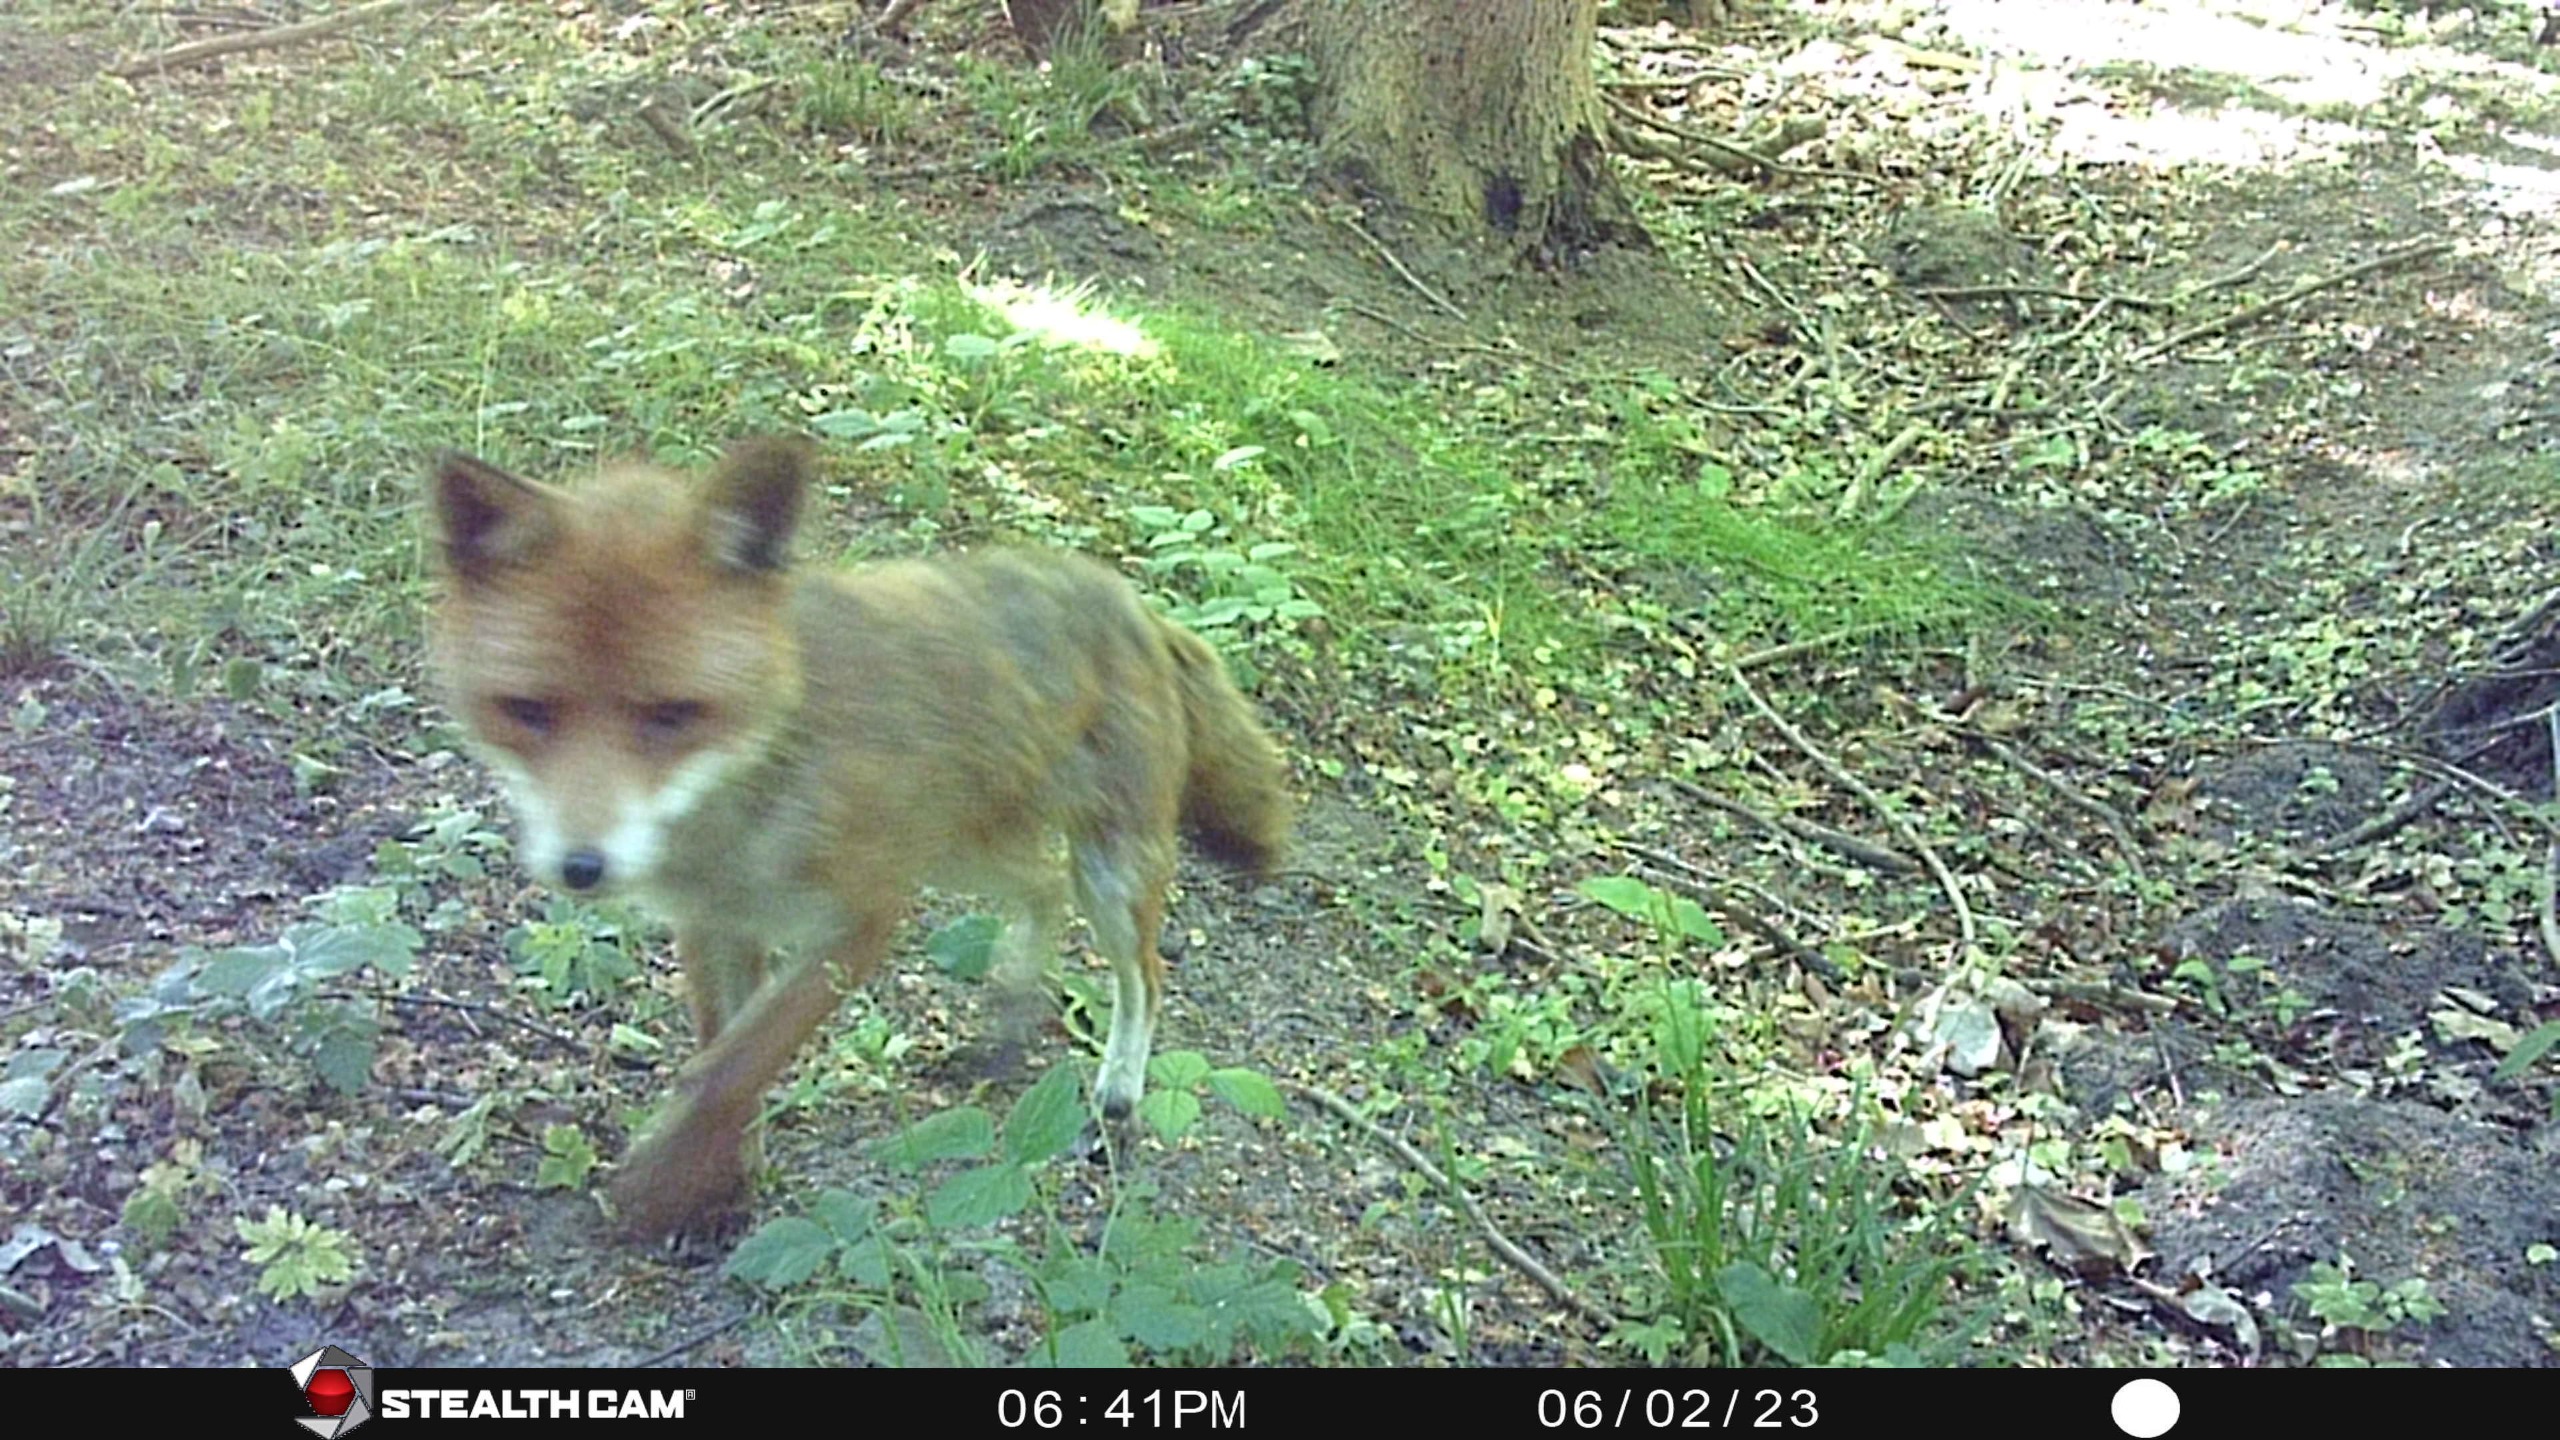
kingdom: Animalia
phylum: Chordata
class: Mammalia
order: Carnivora
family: Canidae
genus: Vulpes
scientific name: Vulpes vulpes
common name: Ræv
